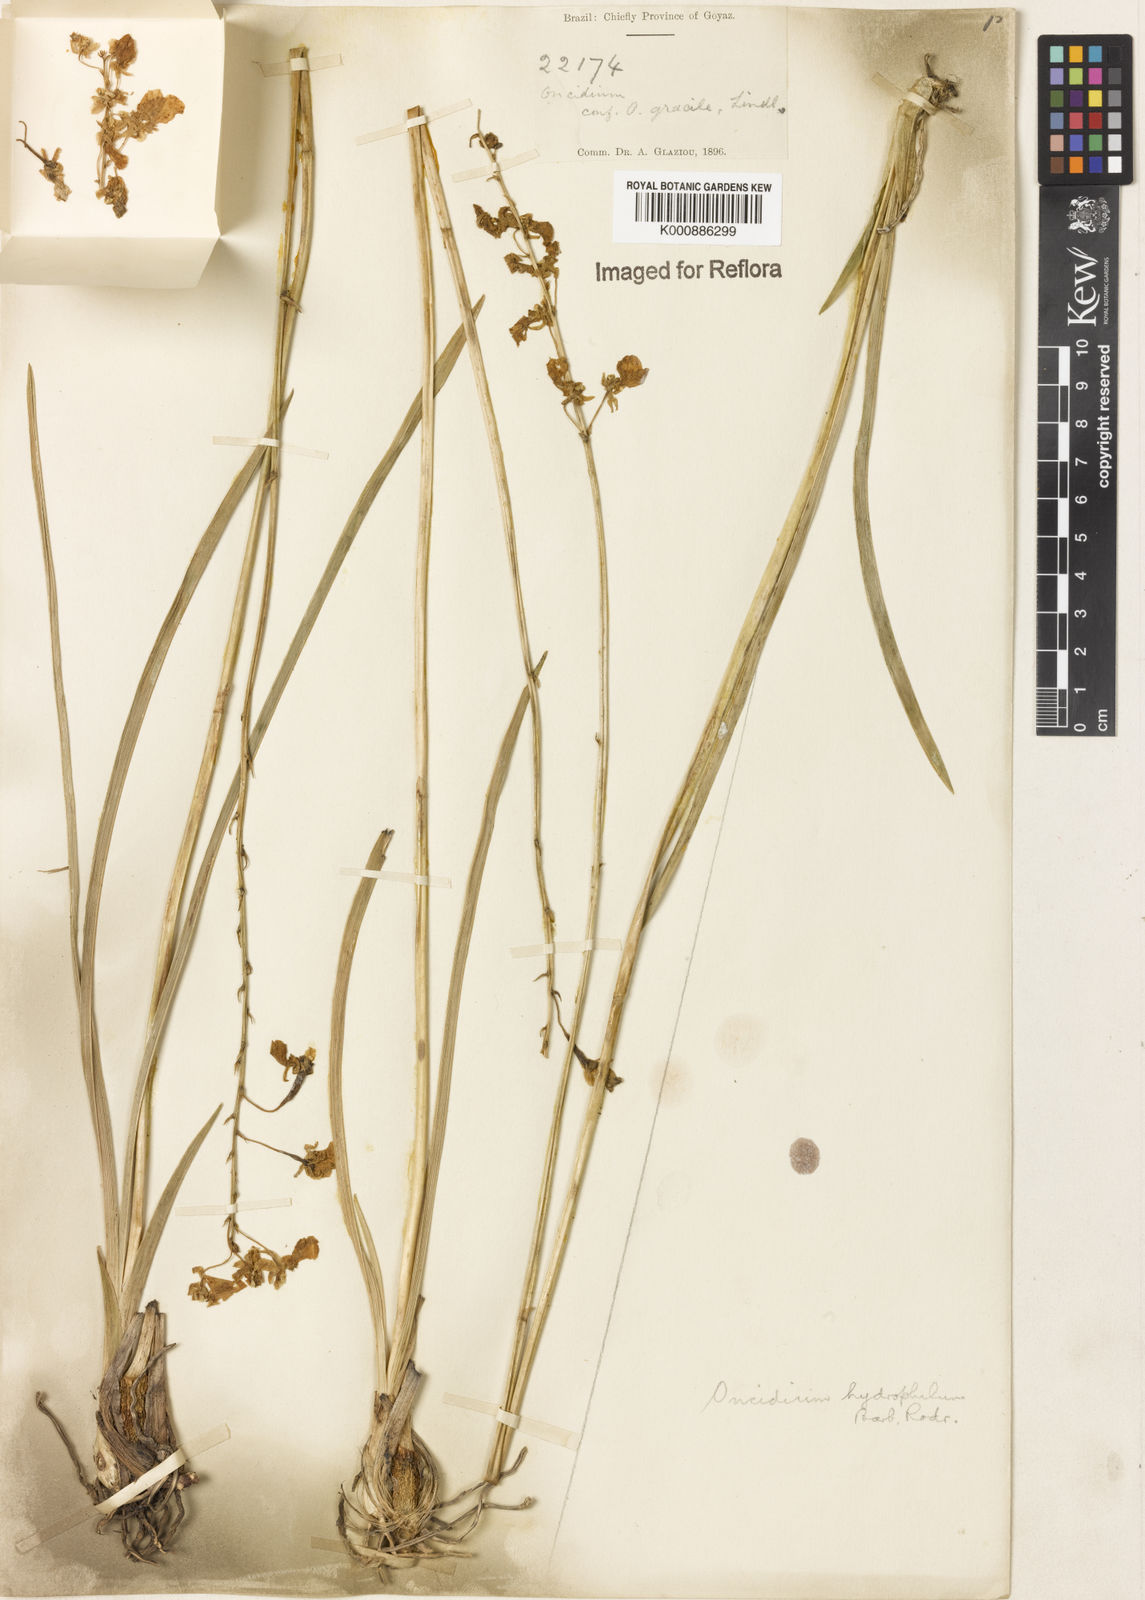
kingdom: Plantae
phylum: Tracheophyta
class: Liliopsida
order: Asparagales
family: Orchidaceae
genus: Gomesa
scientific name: Gomesa hydrophila
